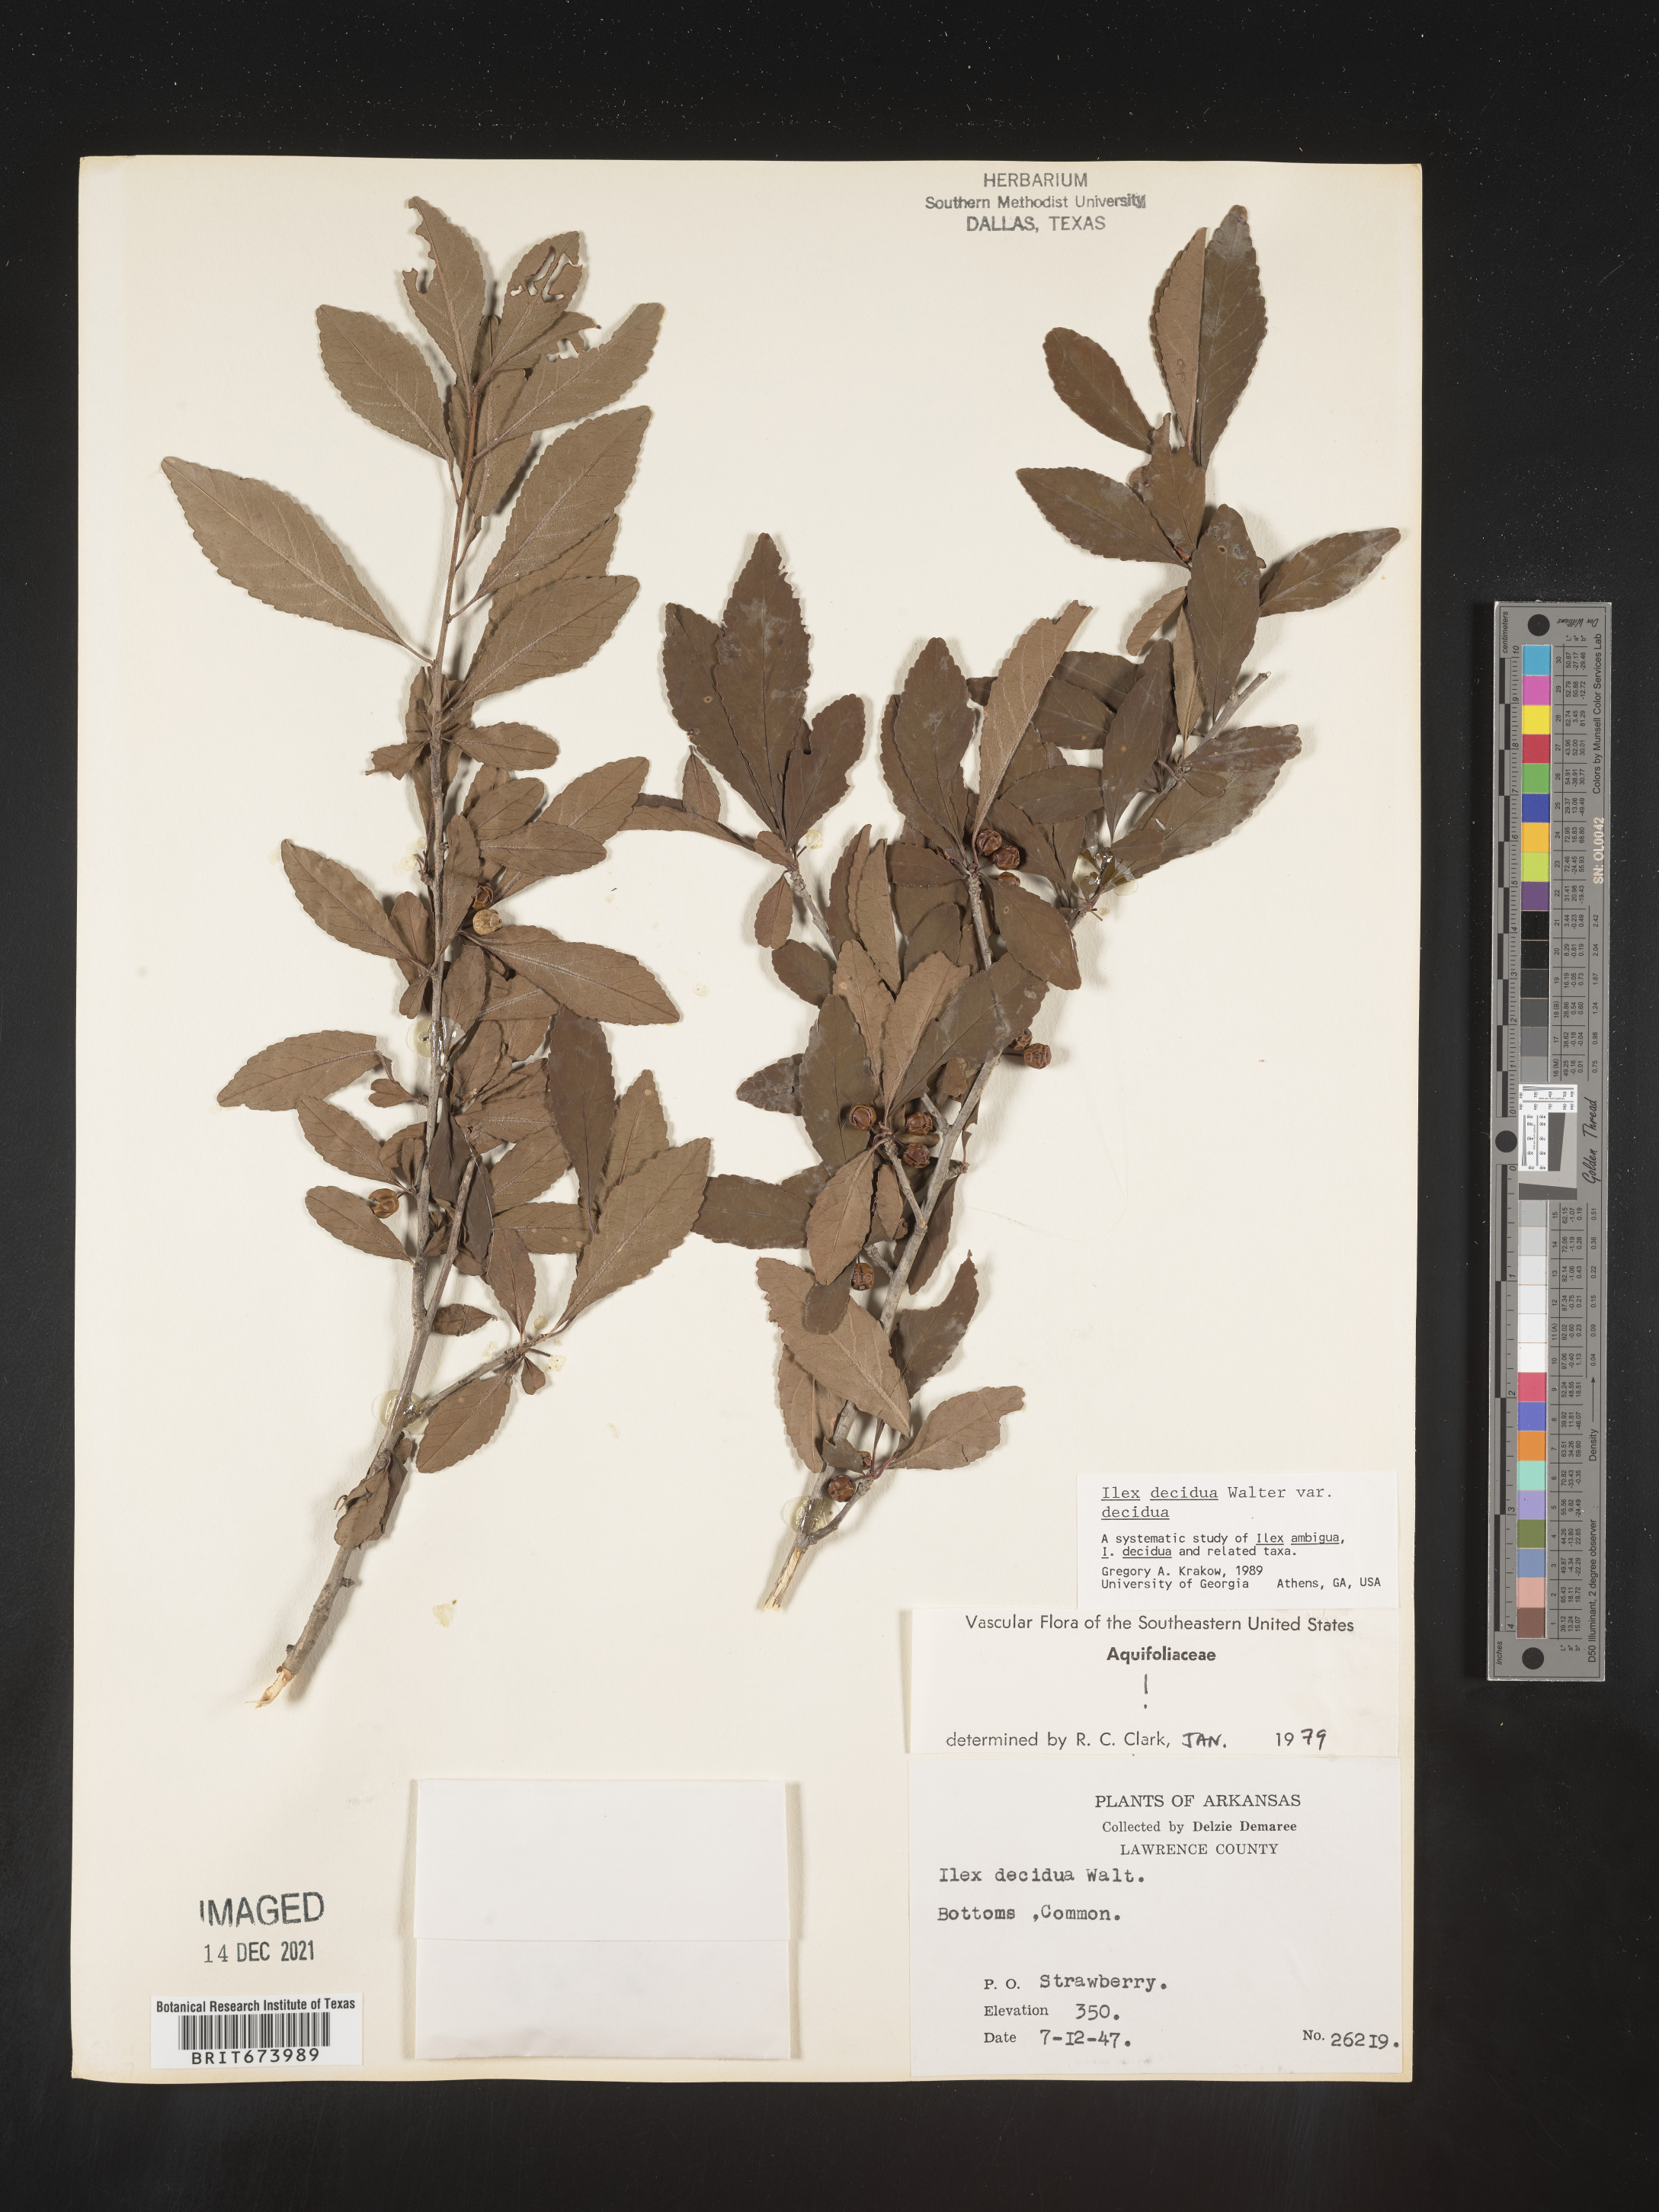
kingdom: Plantae
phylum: Tracheophyta
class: Magnoliopsida
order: Aquifoliales
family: Aquifoliaceae
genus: Ilex
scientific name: Ilex decidua
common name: Possum-haw
